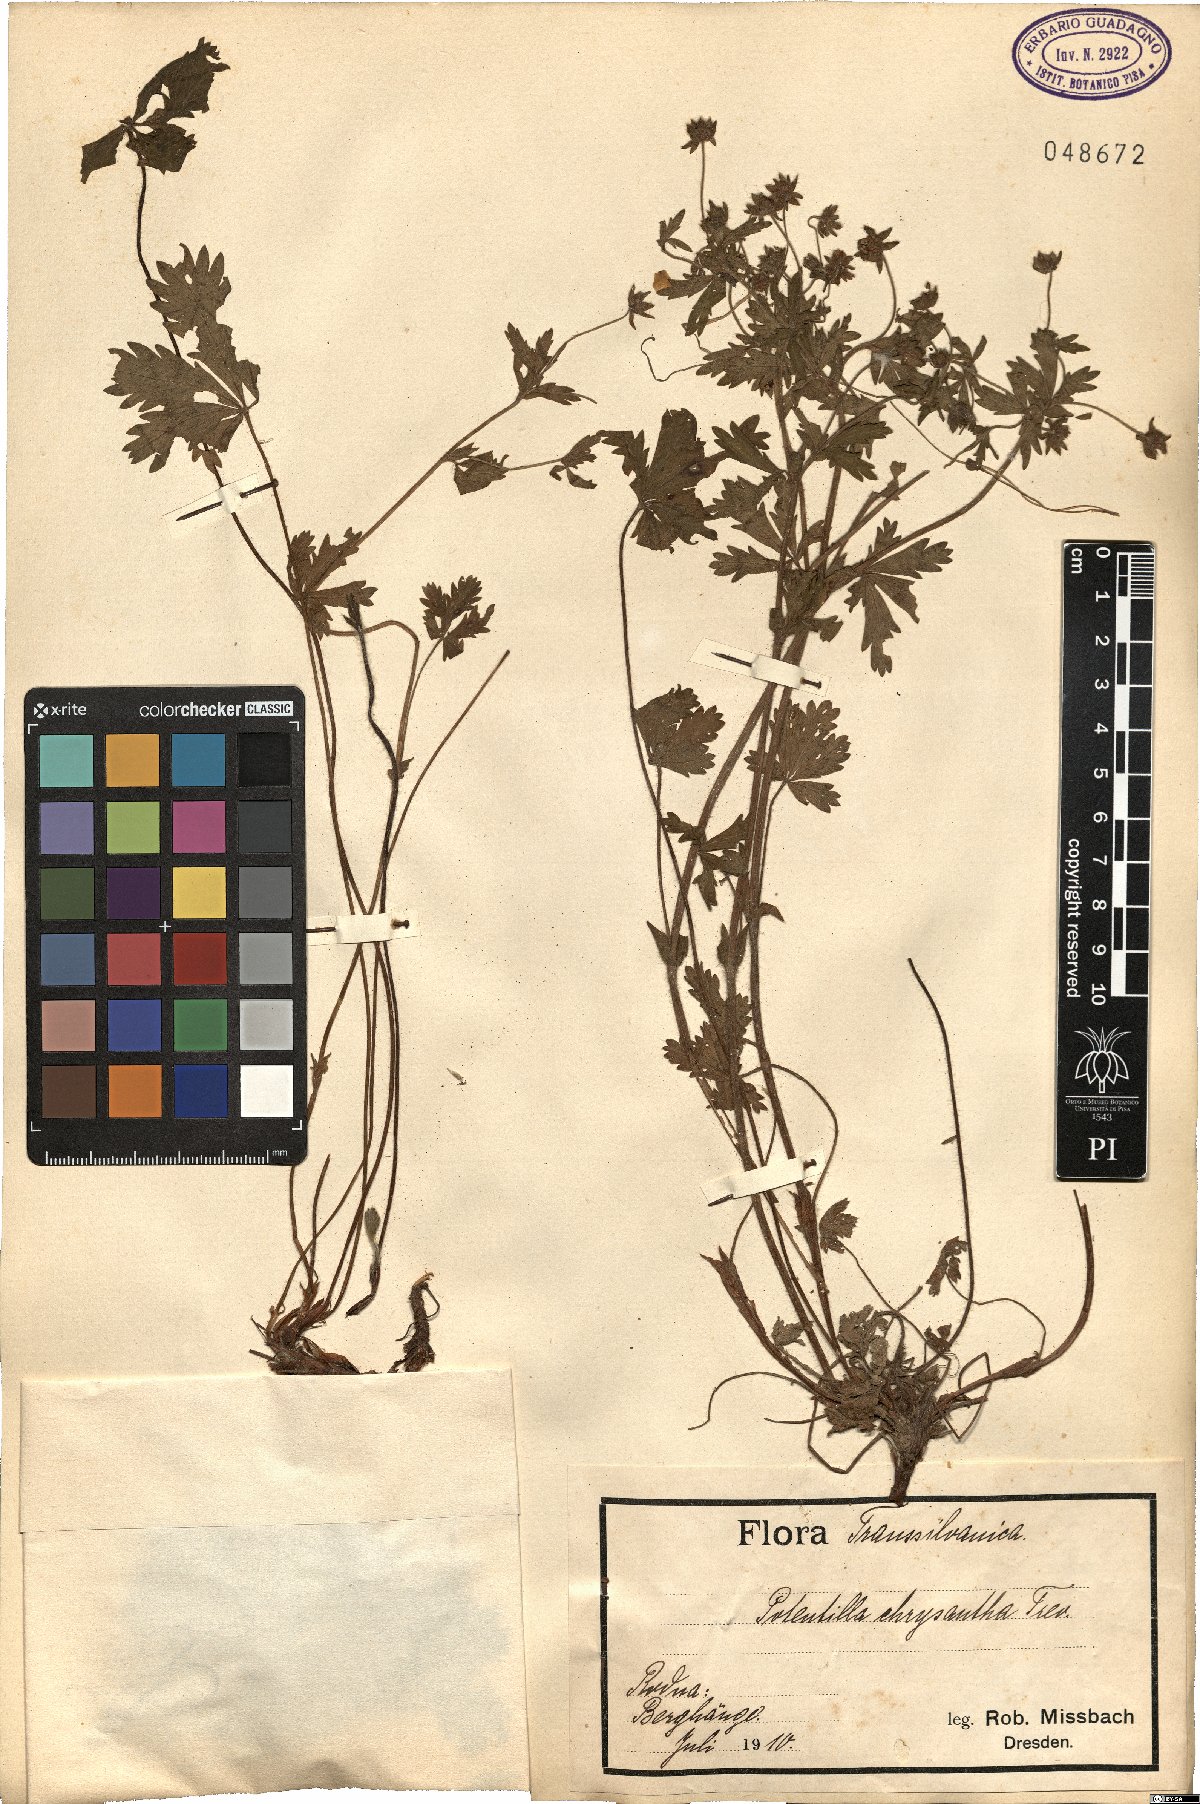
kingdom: Plantae
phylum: Tracheophyta
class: Magnoliopsida
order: Rosales
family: Rosaceae
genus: Potentilla
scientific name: Potentilla chrysantha
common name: Thuringian cinquefoil
